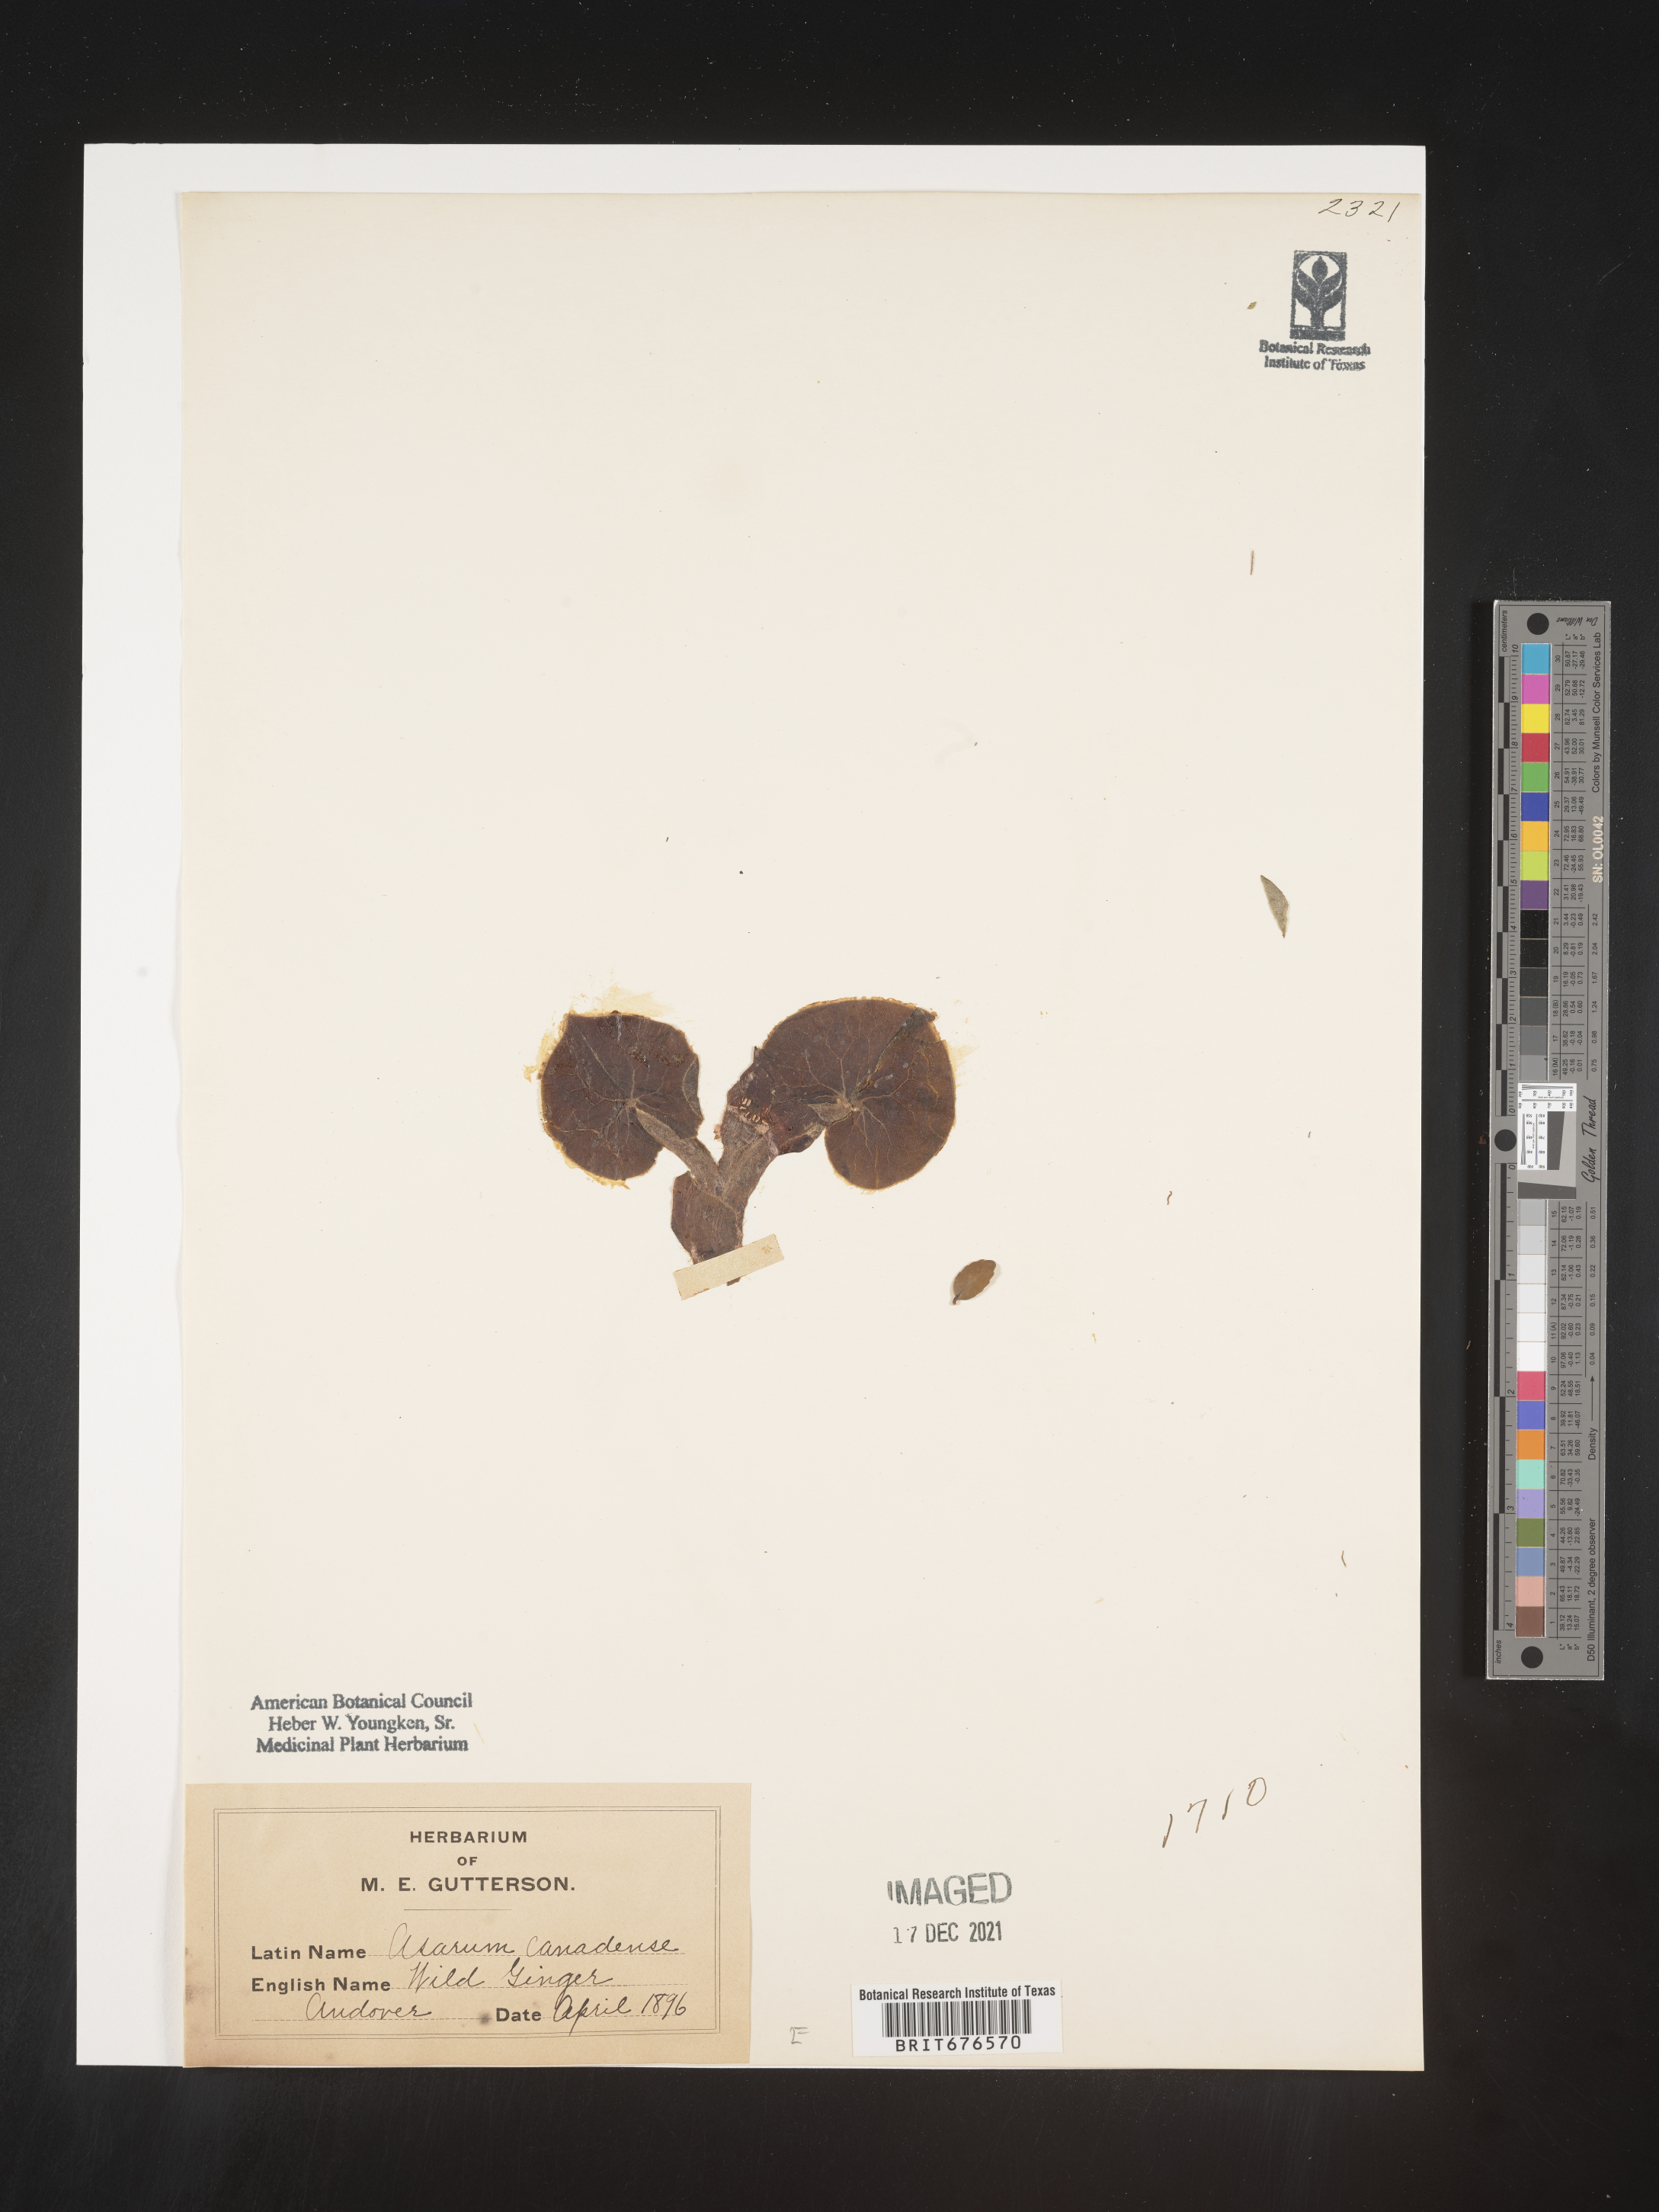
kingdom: Plantae
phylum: Tracheophyta
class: Magnoliopsida
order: Piperales
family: Aristolochiaceae
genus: Asarum
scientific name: Asarum canadense
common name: Wild ginger
